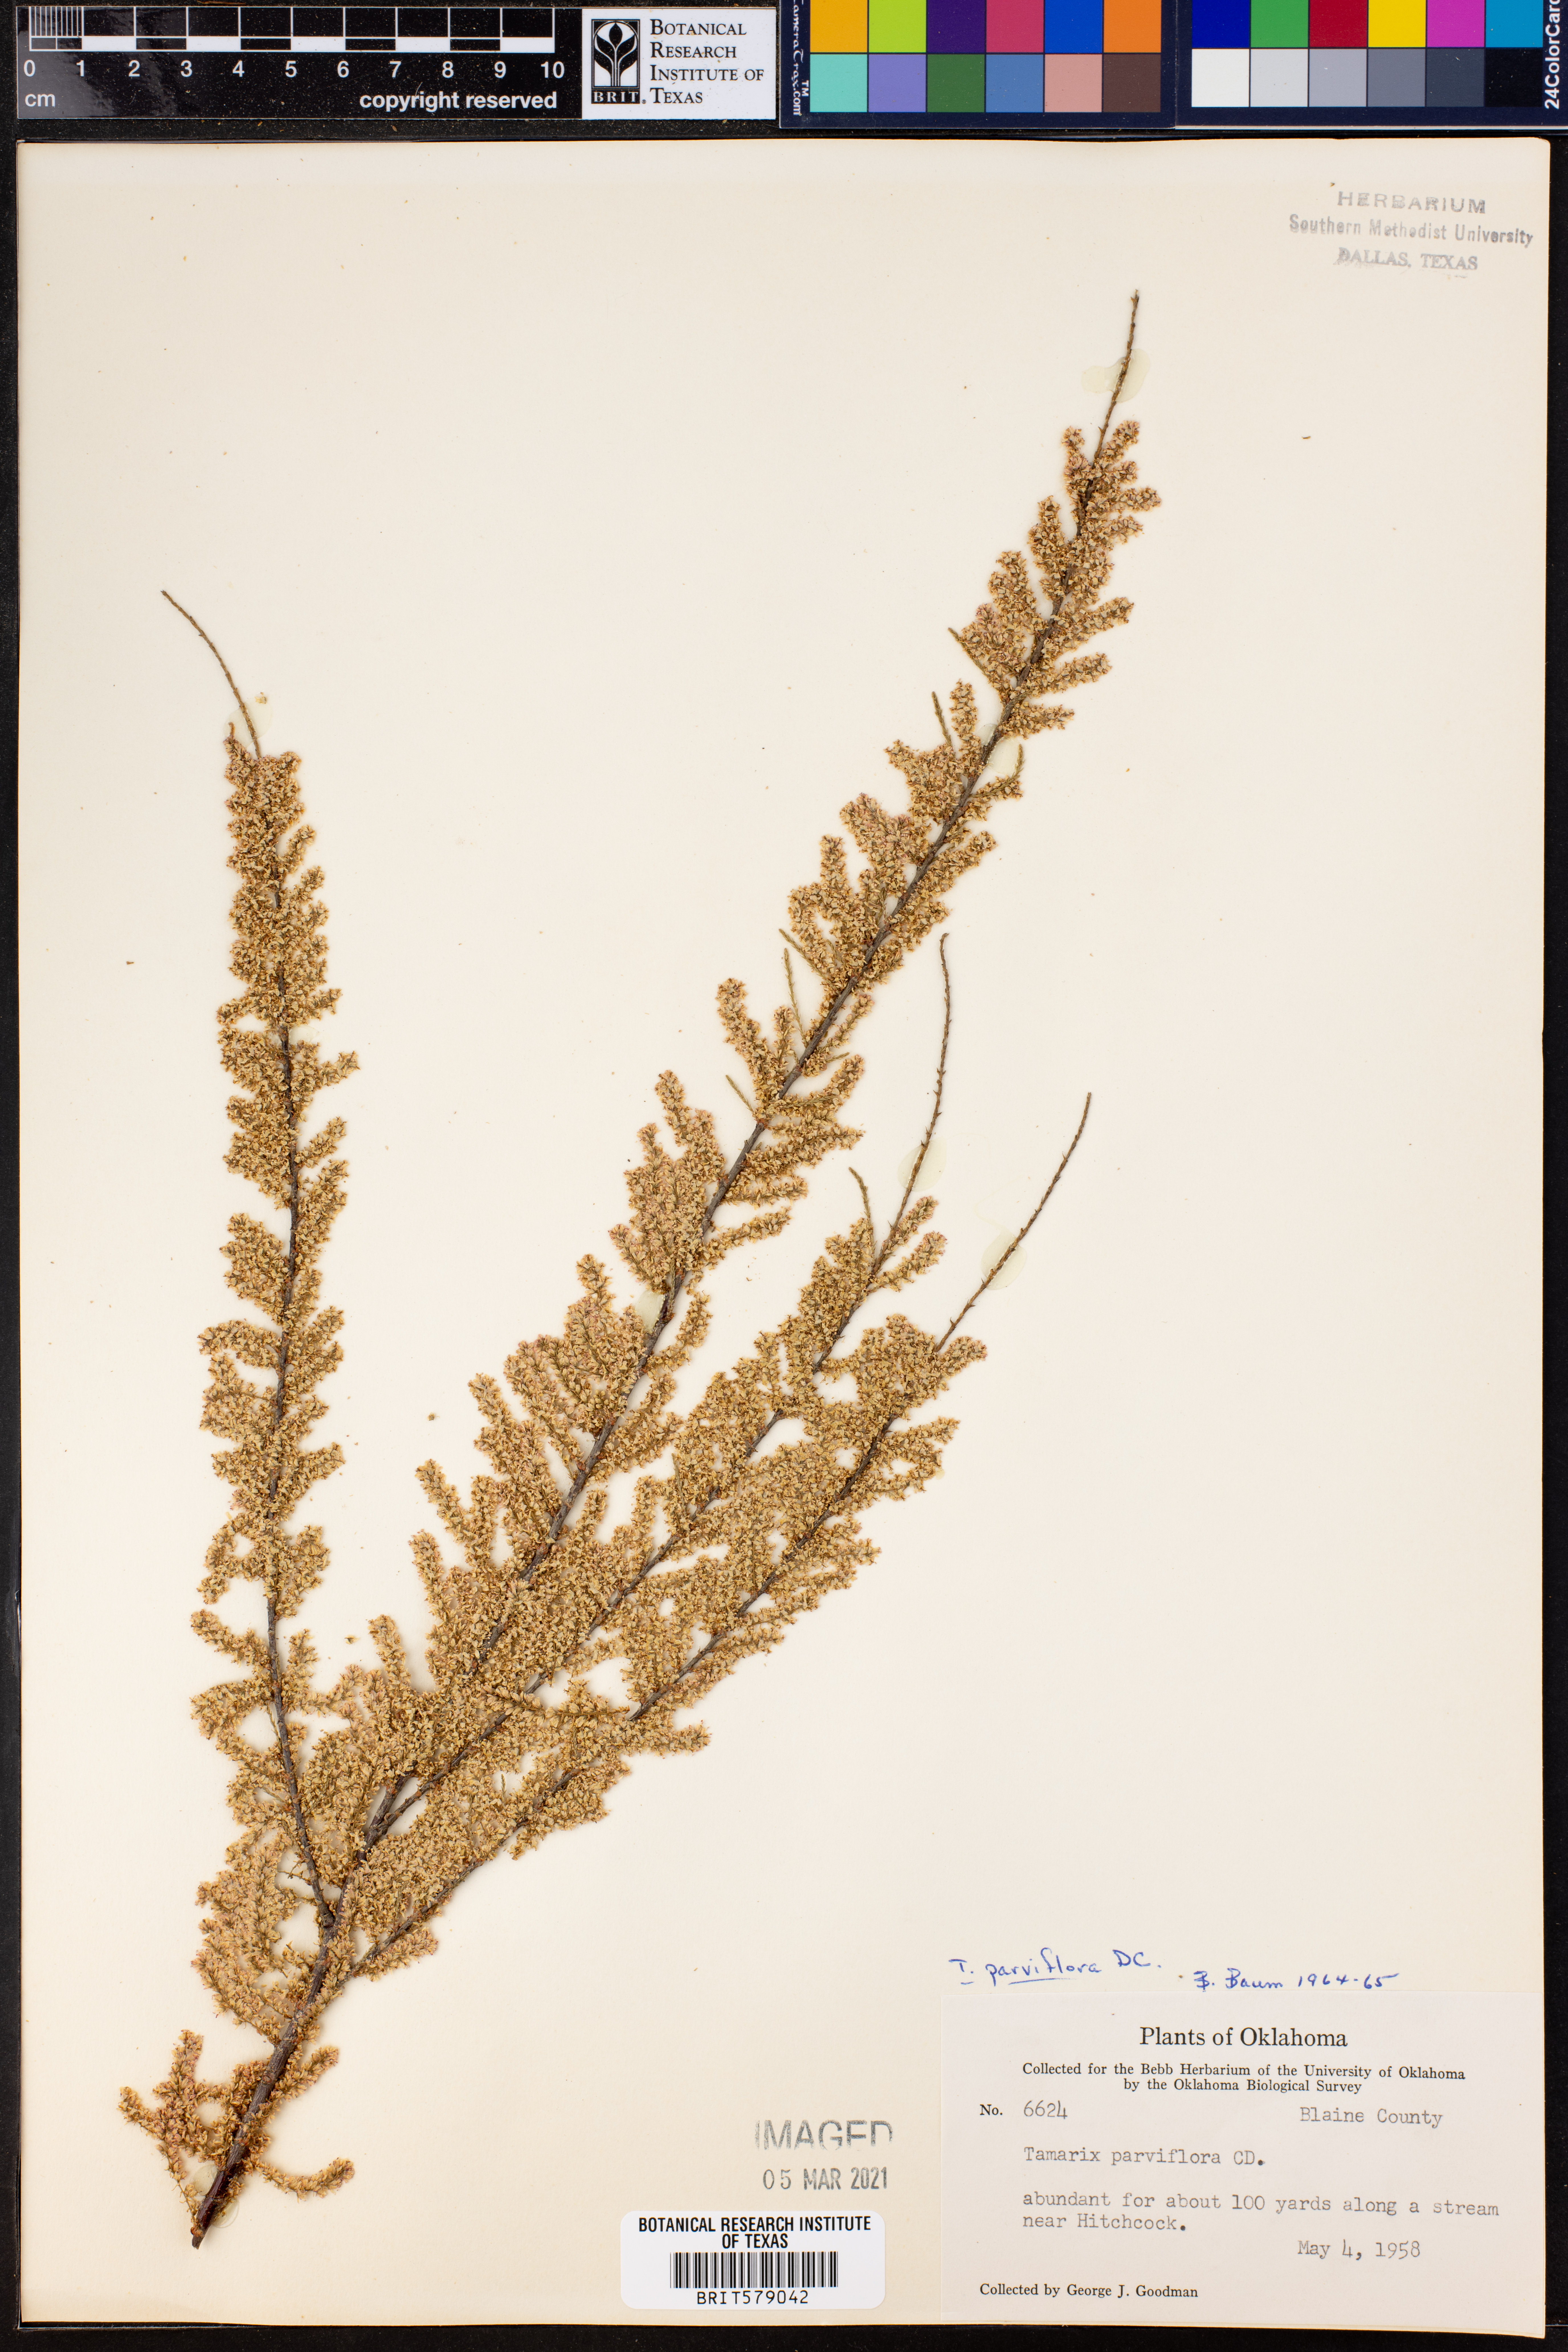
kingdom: Plantae
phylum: Tracheophyta
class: Magnoliopsida
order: Caryophyllales
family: Tamaricaceae
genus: Tamarix
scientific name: Tamarix parviflora
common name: Smallflower tamarisk
